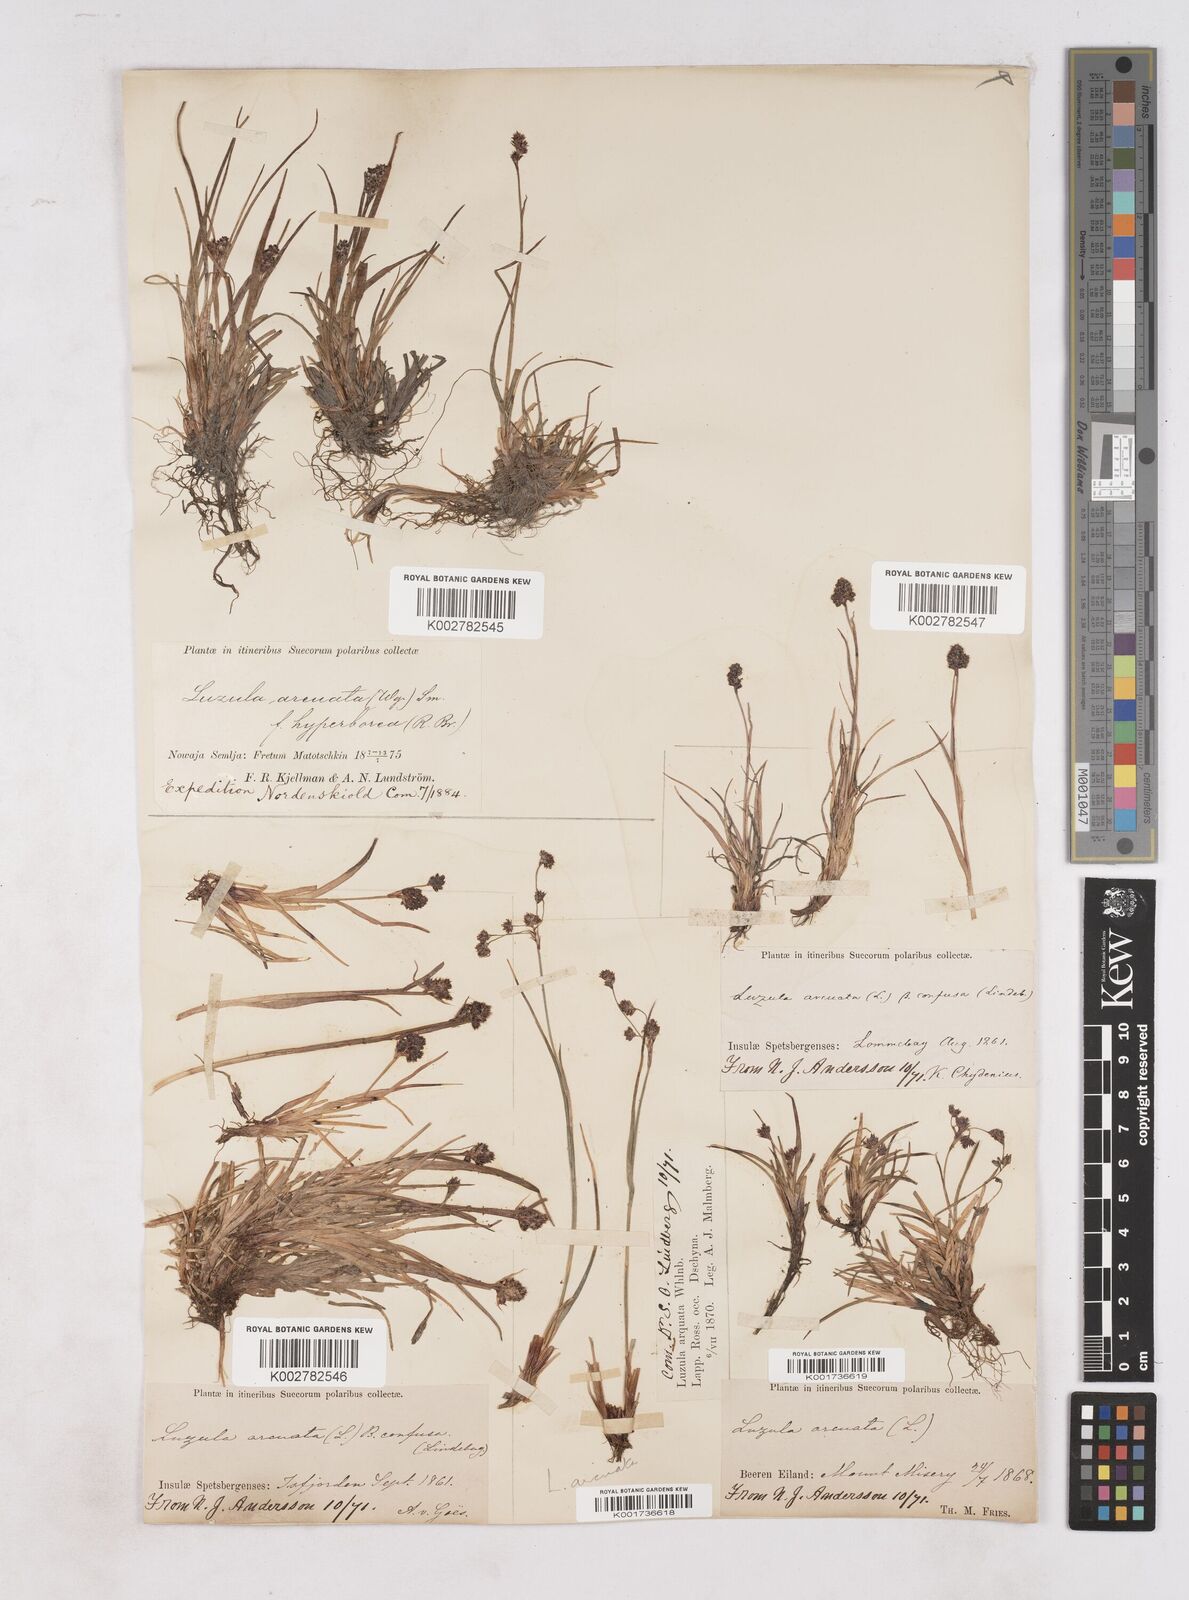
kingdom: Plantae
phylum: Tracheophyta
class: Liliopsida
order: Poales
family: Juncaceae
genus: Luzula
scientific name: Luzula confusa
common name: Northern wood rush
